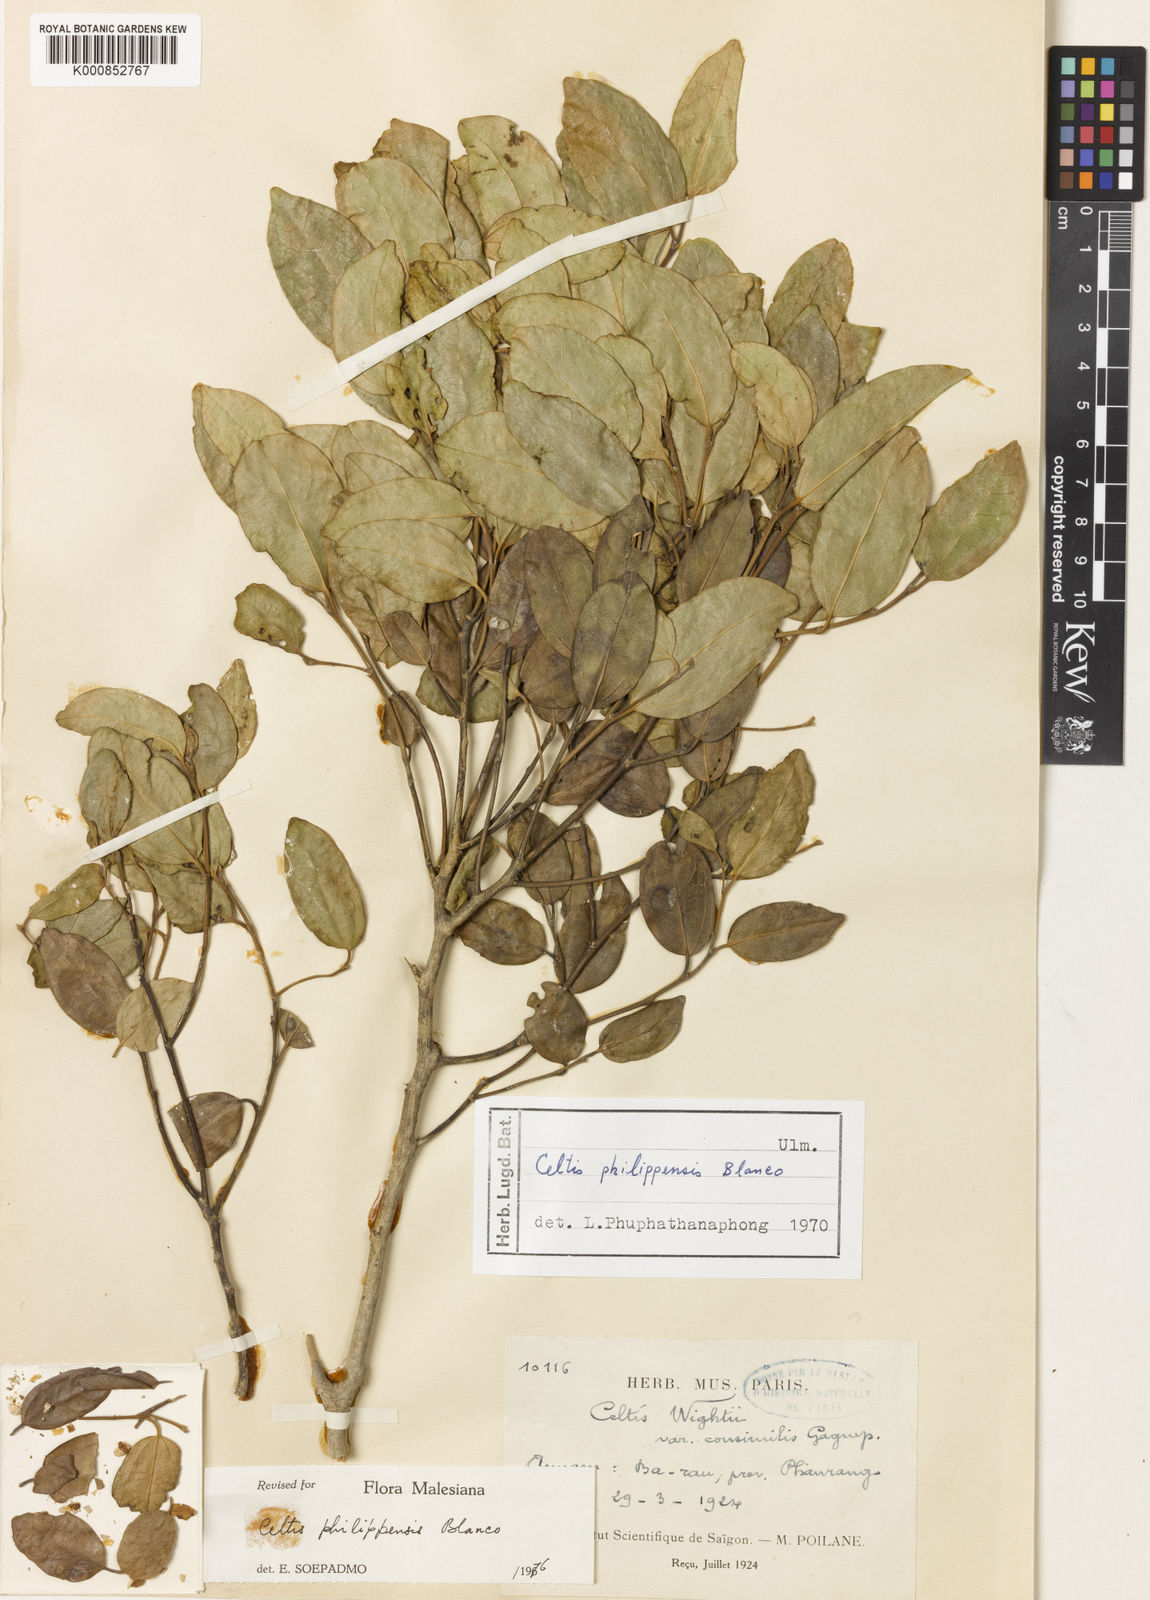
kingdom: Plantae
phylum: Tracheophyta
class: Magnoliopsida
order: Rosales
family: Cannabaceae
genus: Celtis
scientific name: Celtis philippensis
